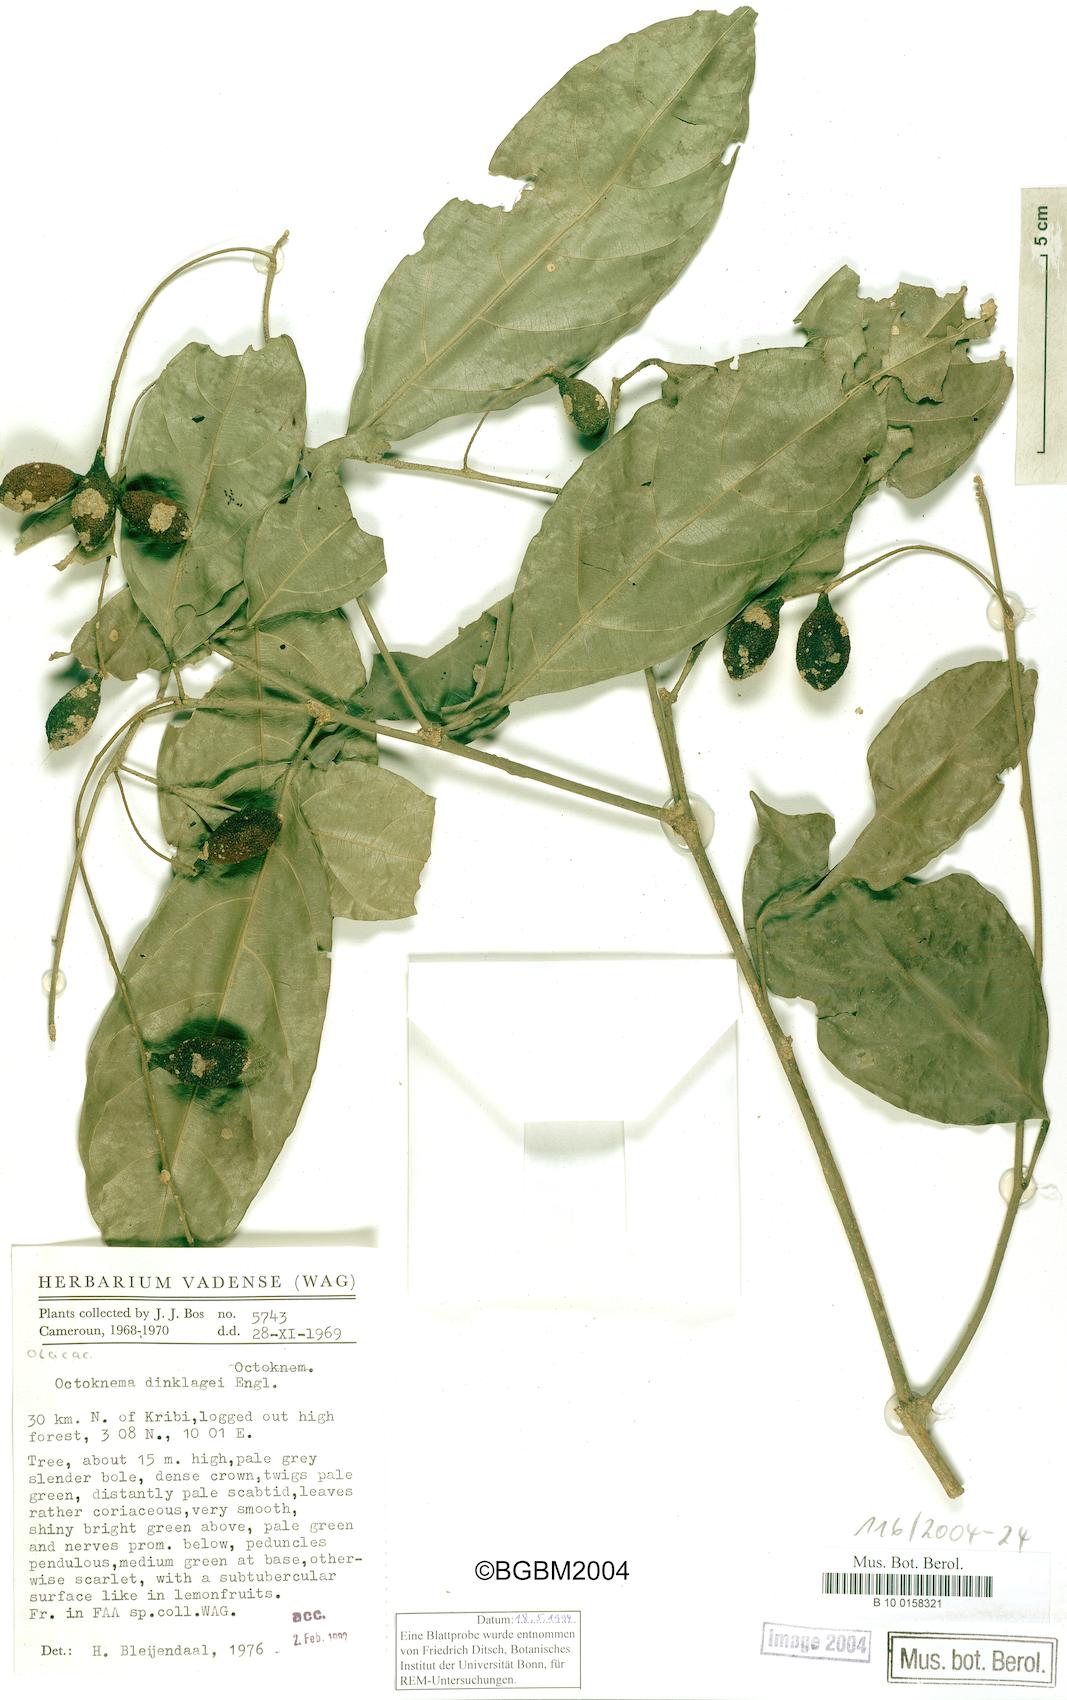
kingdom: Plantae
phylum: Tracheophyta
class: Magnoliopsida
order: Santalales
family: Octoknemaceae
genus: Octoknema
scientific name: Octoknema dinklagei
